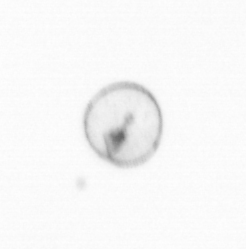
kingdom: Chromista
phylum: Ochrophyta
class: Bacillariophyceae
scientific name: Bacillariophyceae
